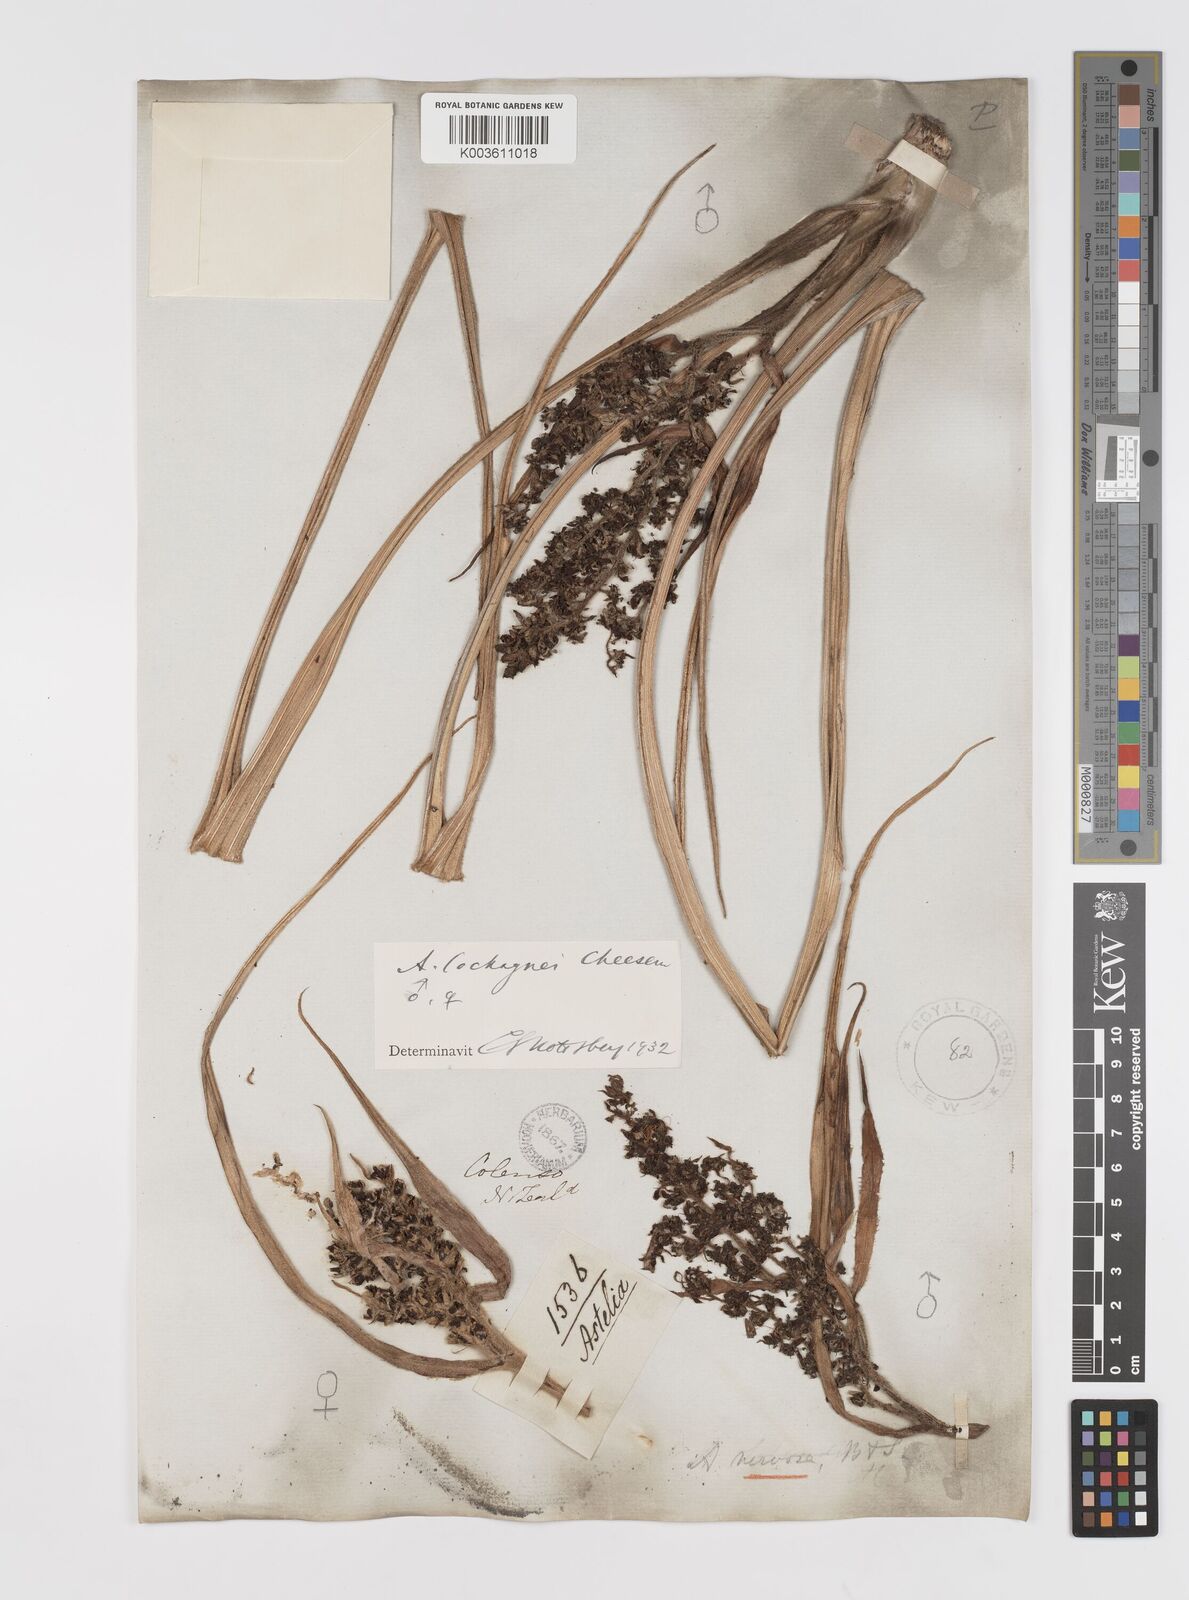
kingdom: Plantae
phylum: Tracheophyta
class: Liliopsida
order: Asparagales
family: Asteliaceae
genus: Astelia
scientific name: Astelia nervosa
